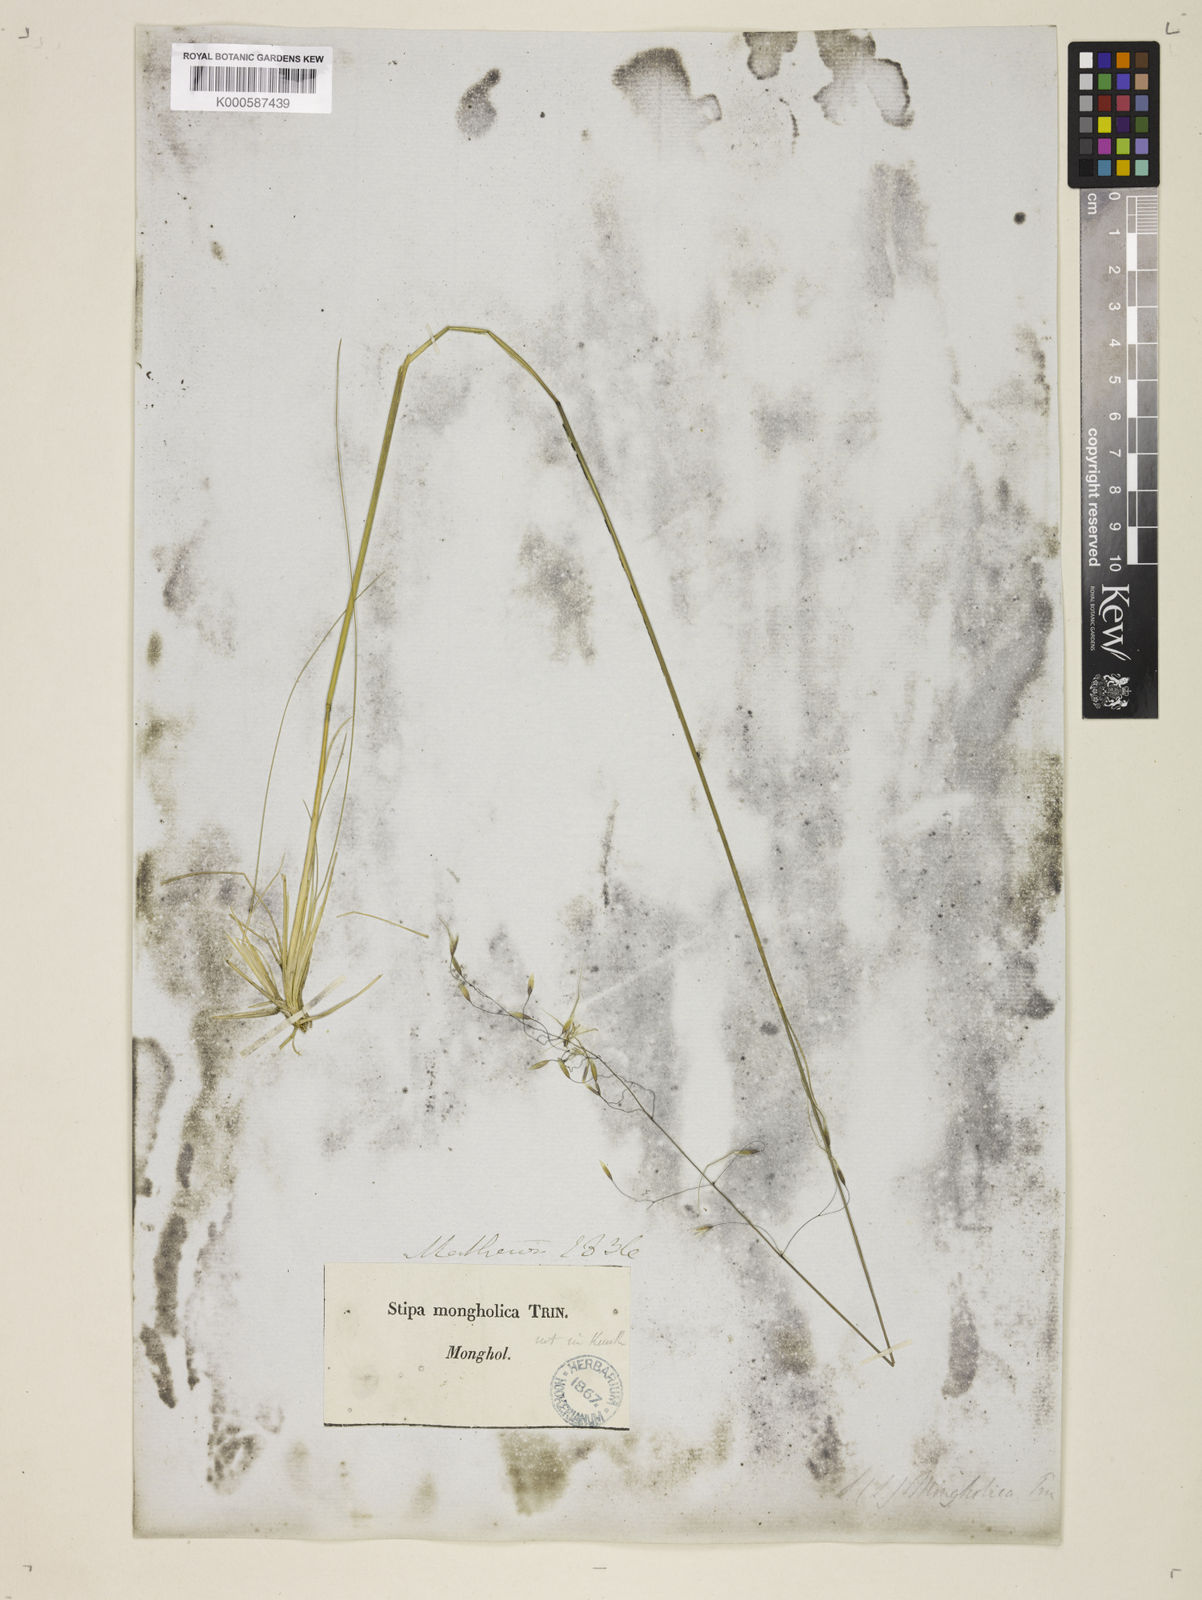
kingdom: Plantae
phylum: Tracheophyta
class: Liliopsida
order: Poales
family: Poaceae
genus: Ptilagrostis
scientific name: Ptilagrostis mongholica
